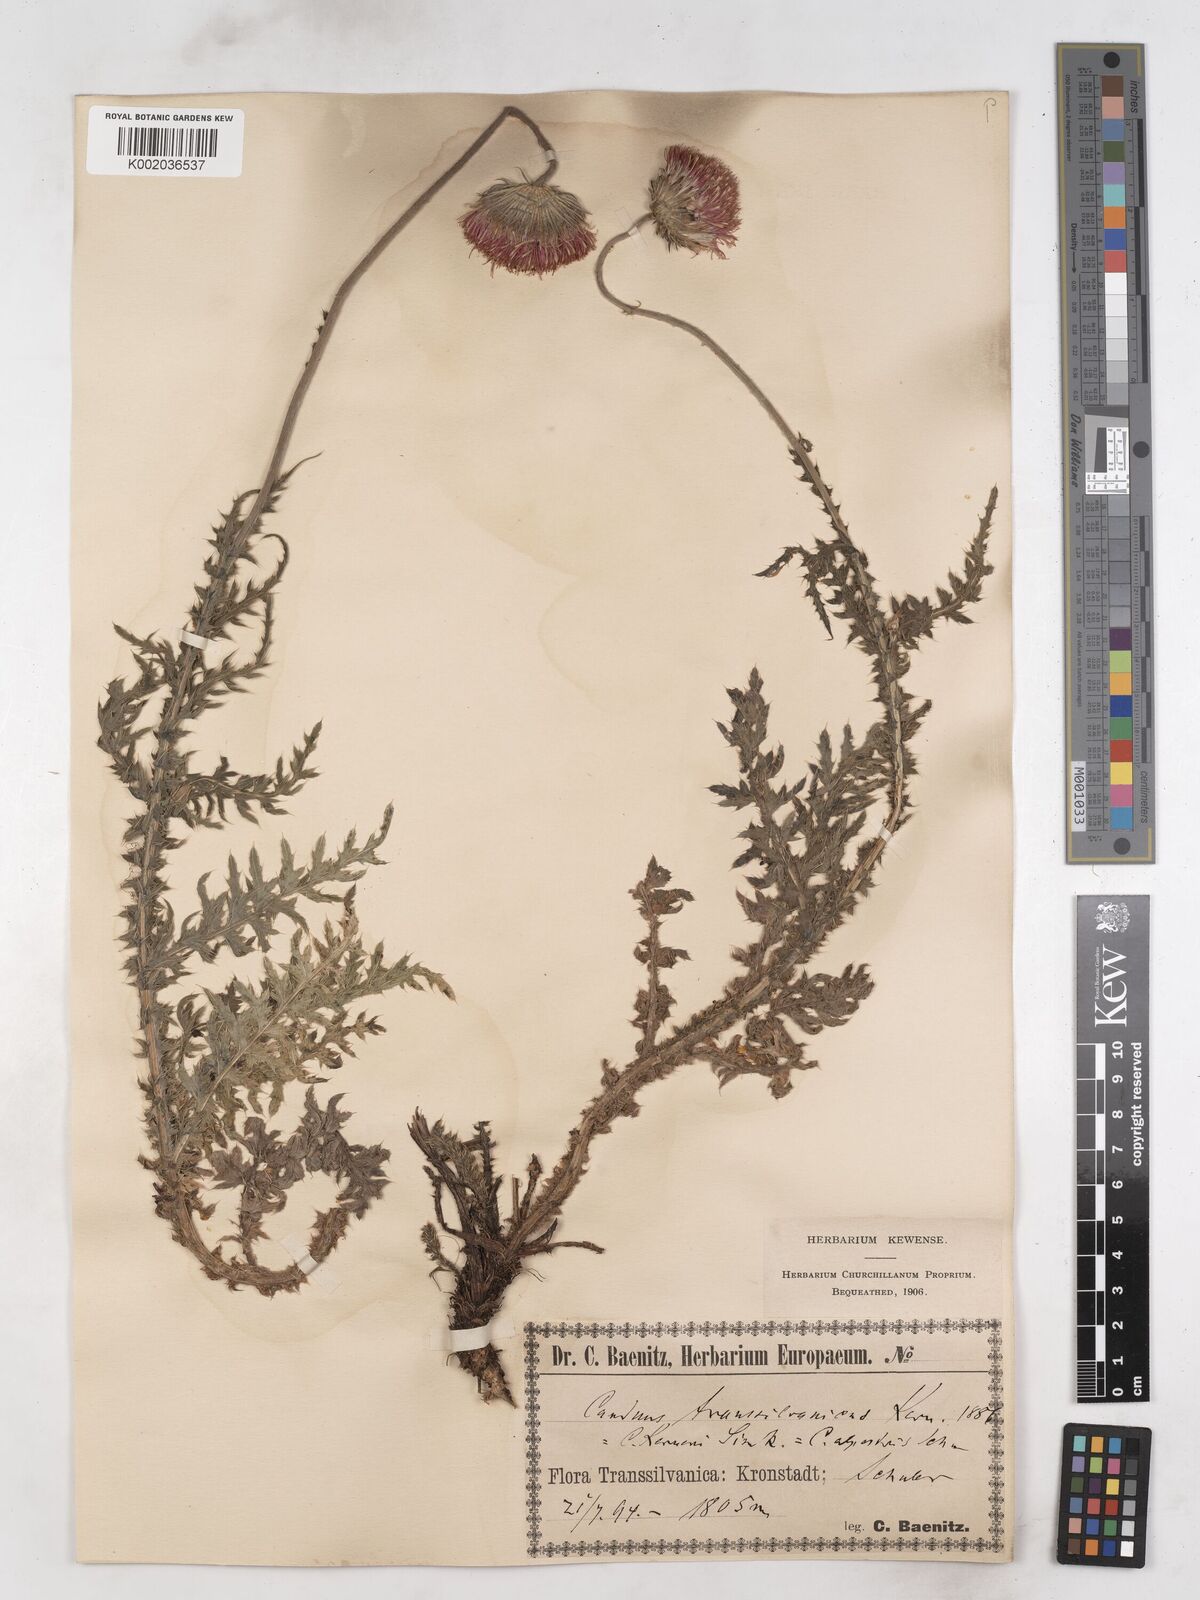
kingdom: Plantae
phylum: Tracheophyta
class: Magnoliopsida
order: Asterales
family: Asteraceae
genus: Carduus
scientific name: Carduus kerneri
